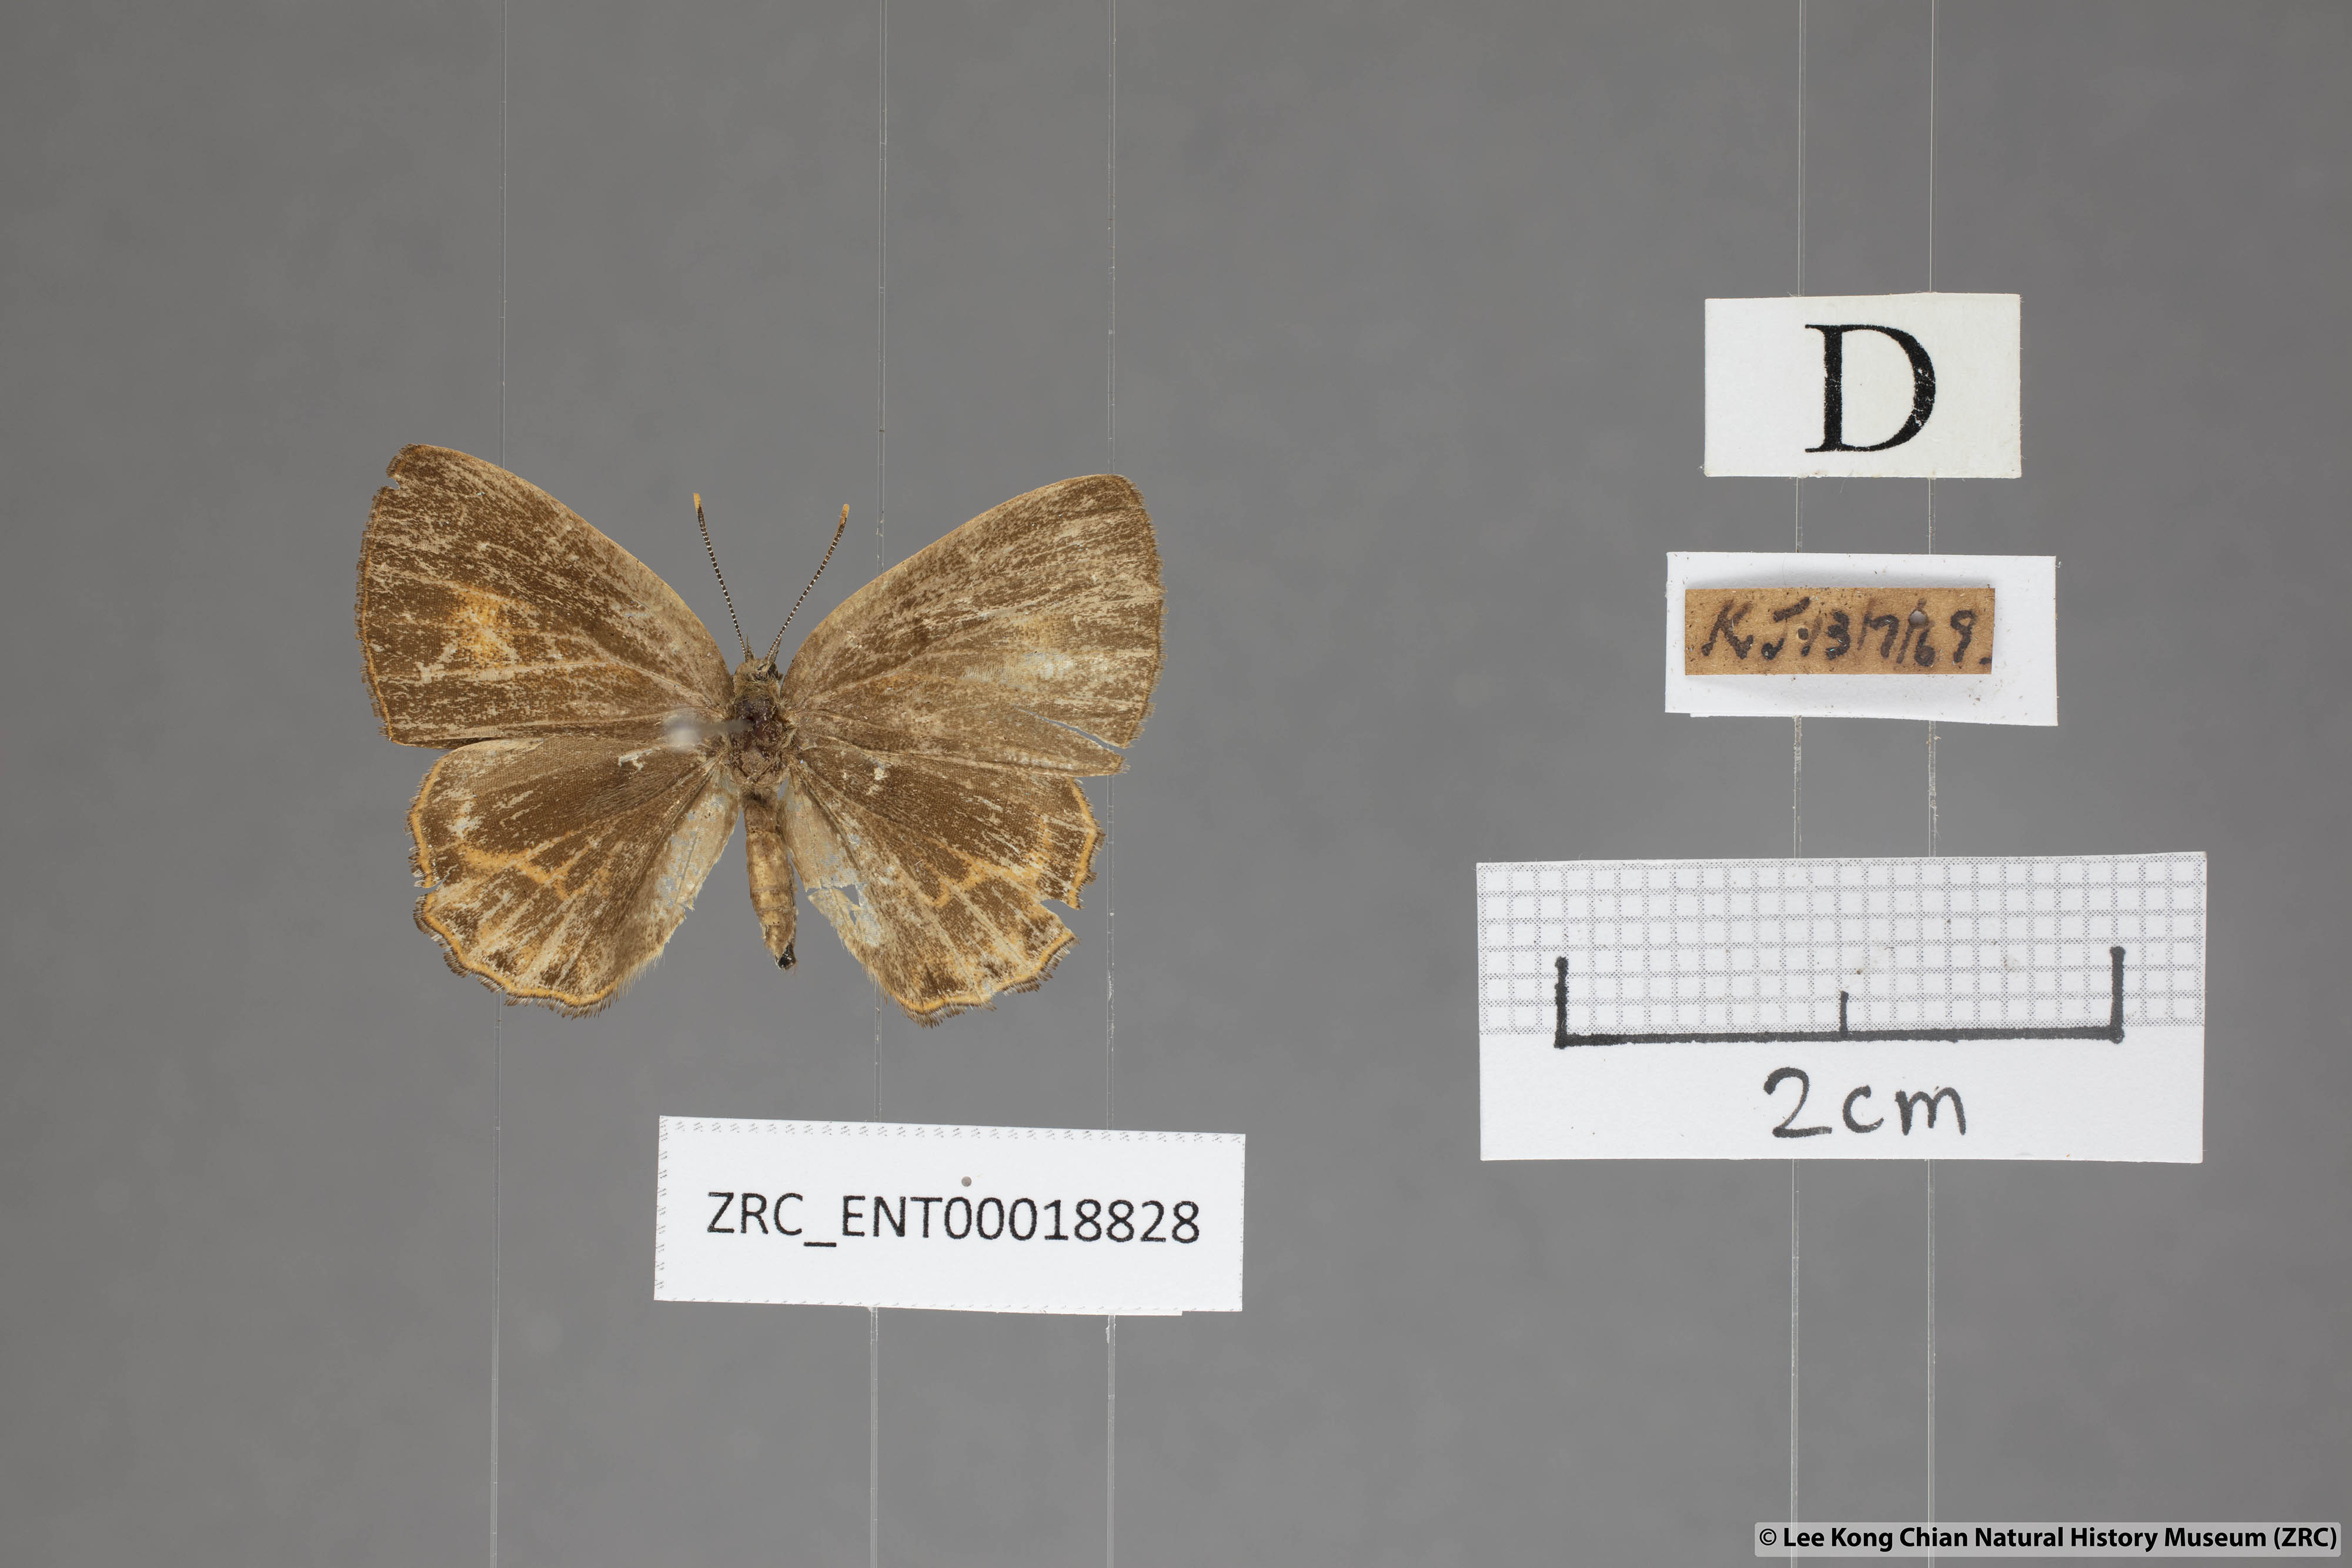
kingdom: Animalia
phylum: Arthropoda
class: Insecta
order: Lepidoptera
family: Lycaenidae
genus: Poritia
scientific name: Poritia philota
